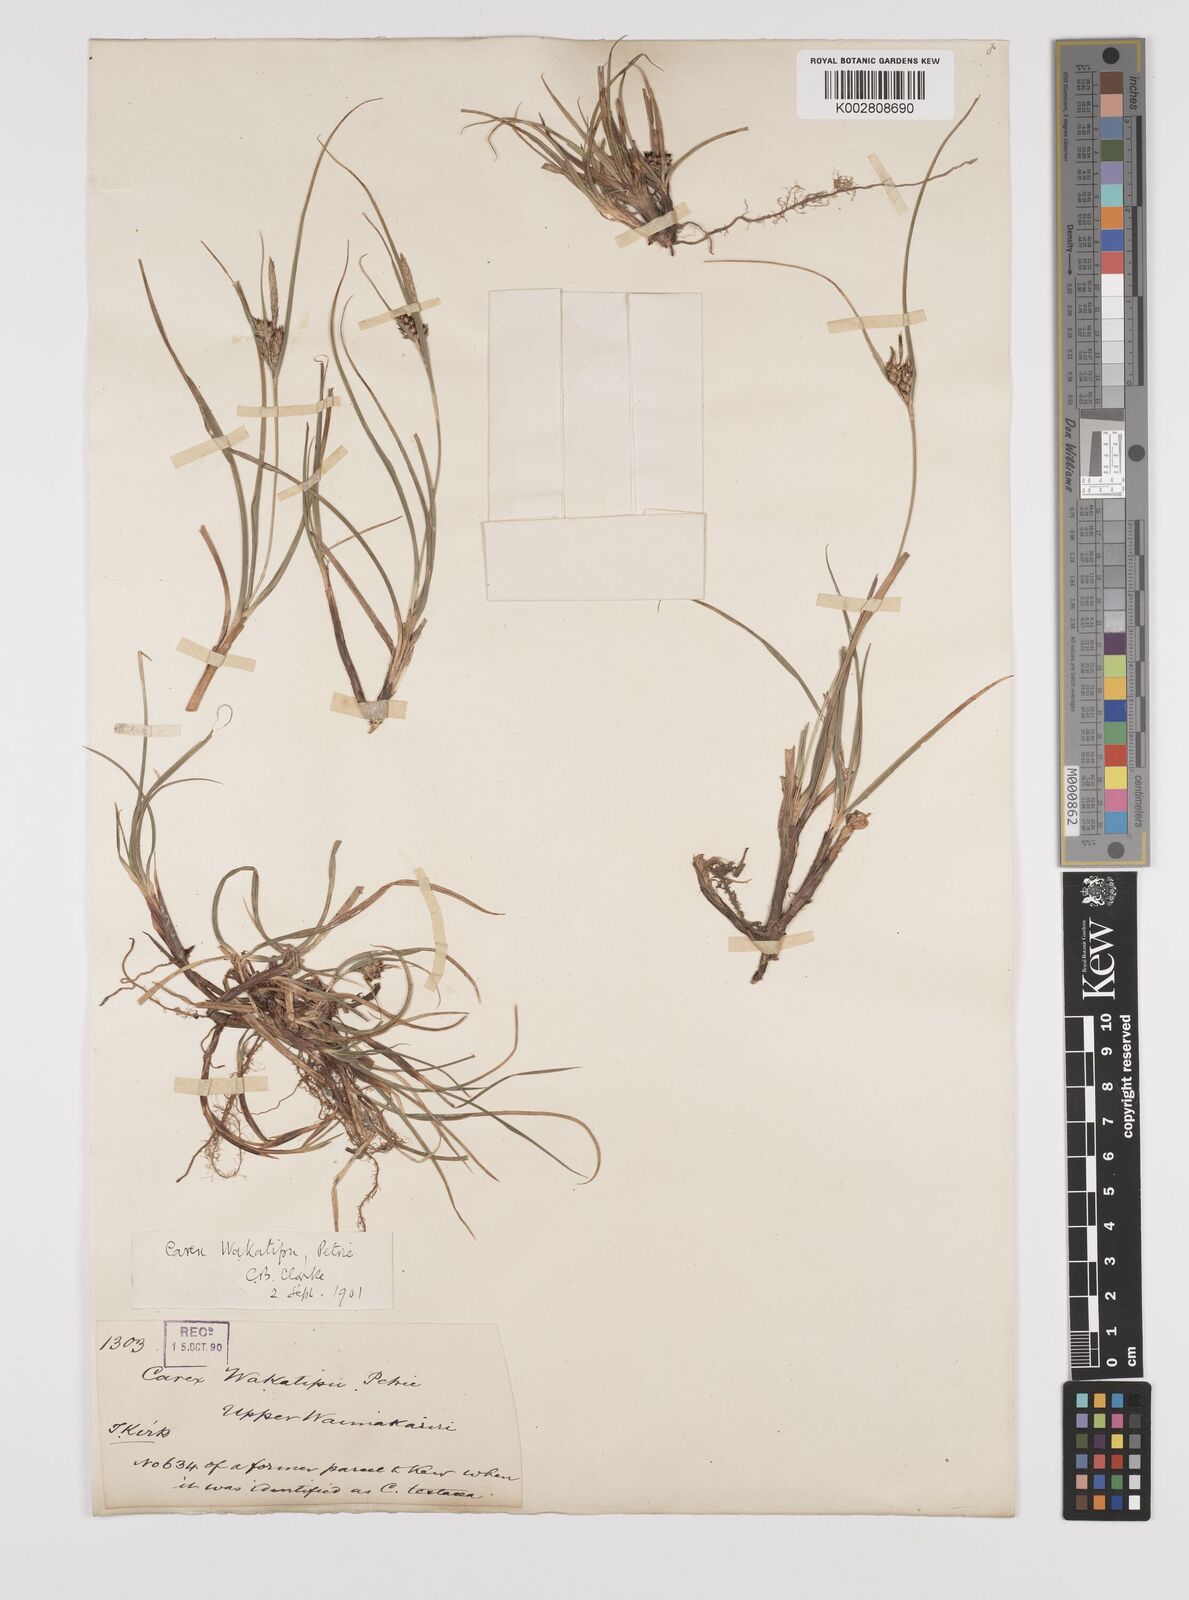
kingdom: Plantae
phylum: Tracheophyta
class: Liliopsida
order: Poales
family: Cyperaceae
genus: Carex
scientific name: Carex wakatipu
